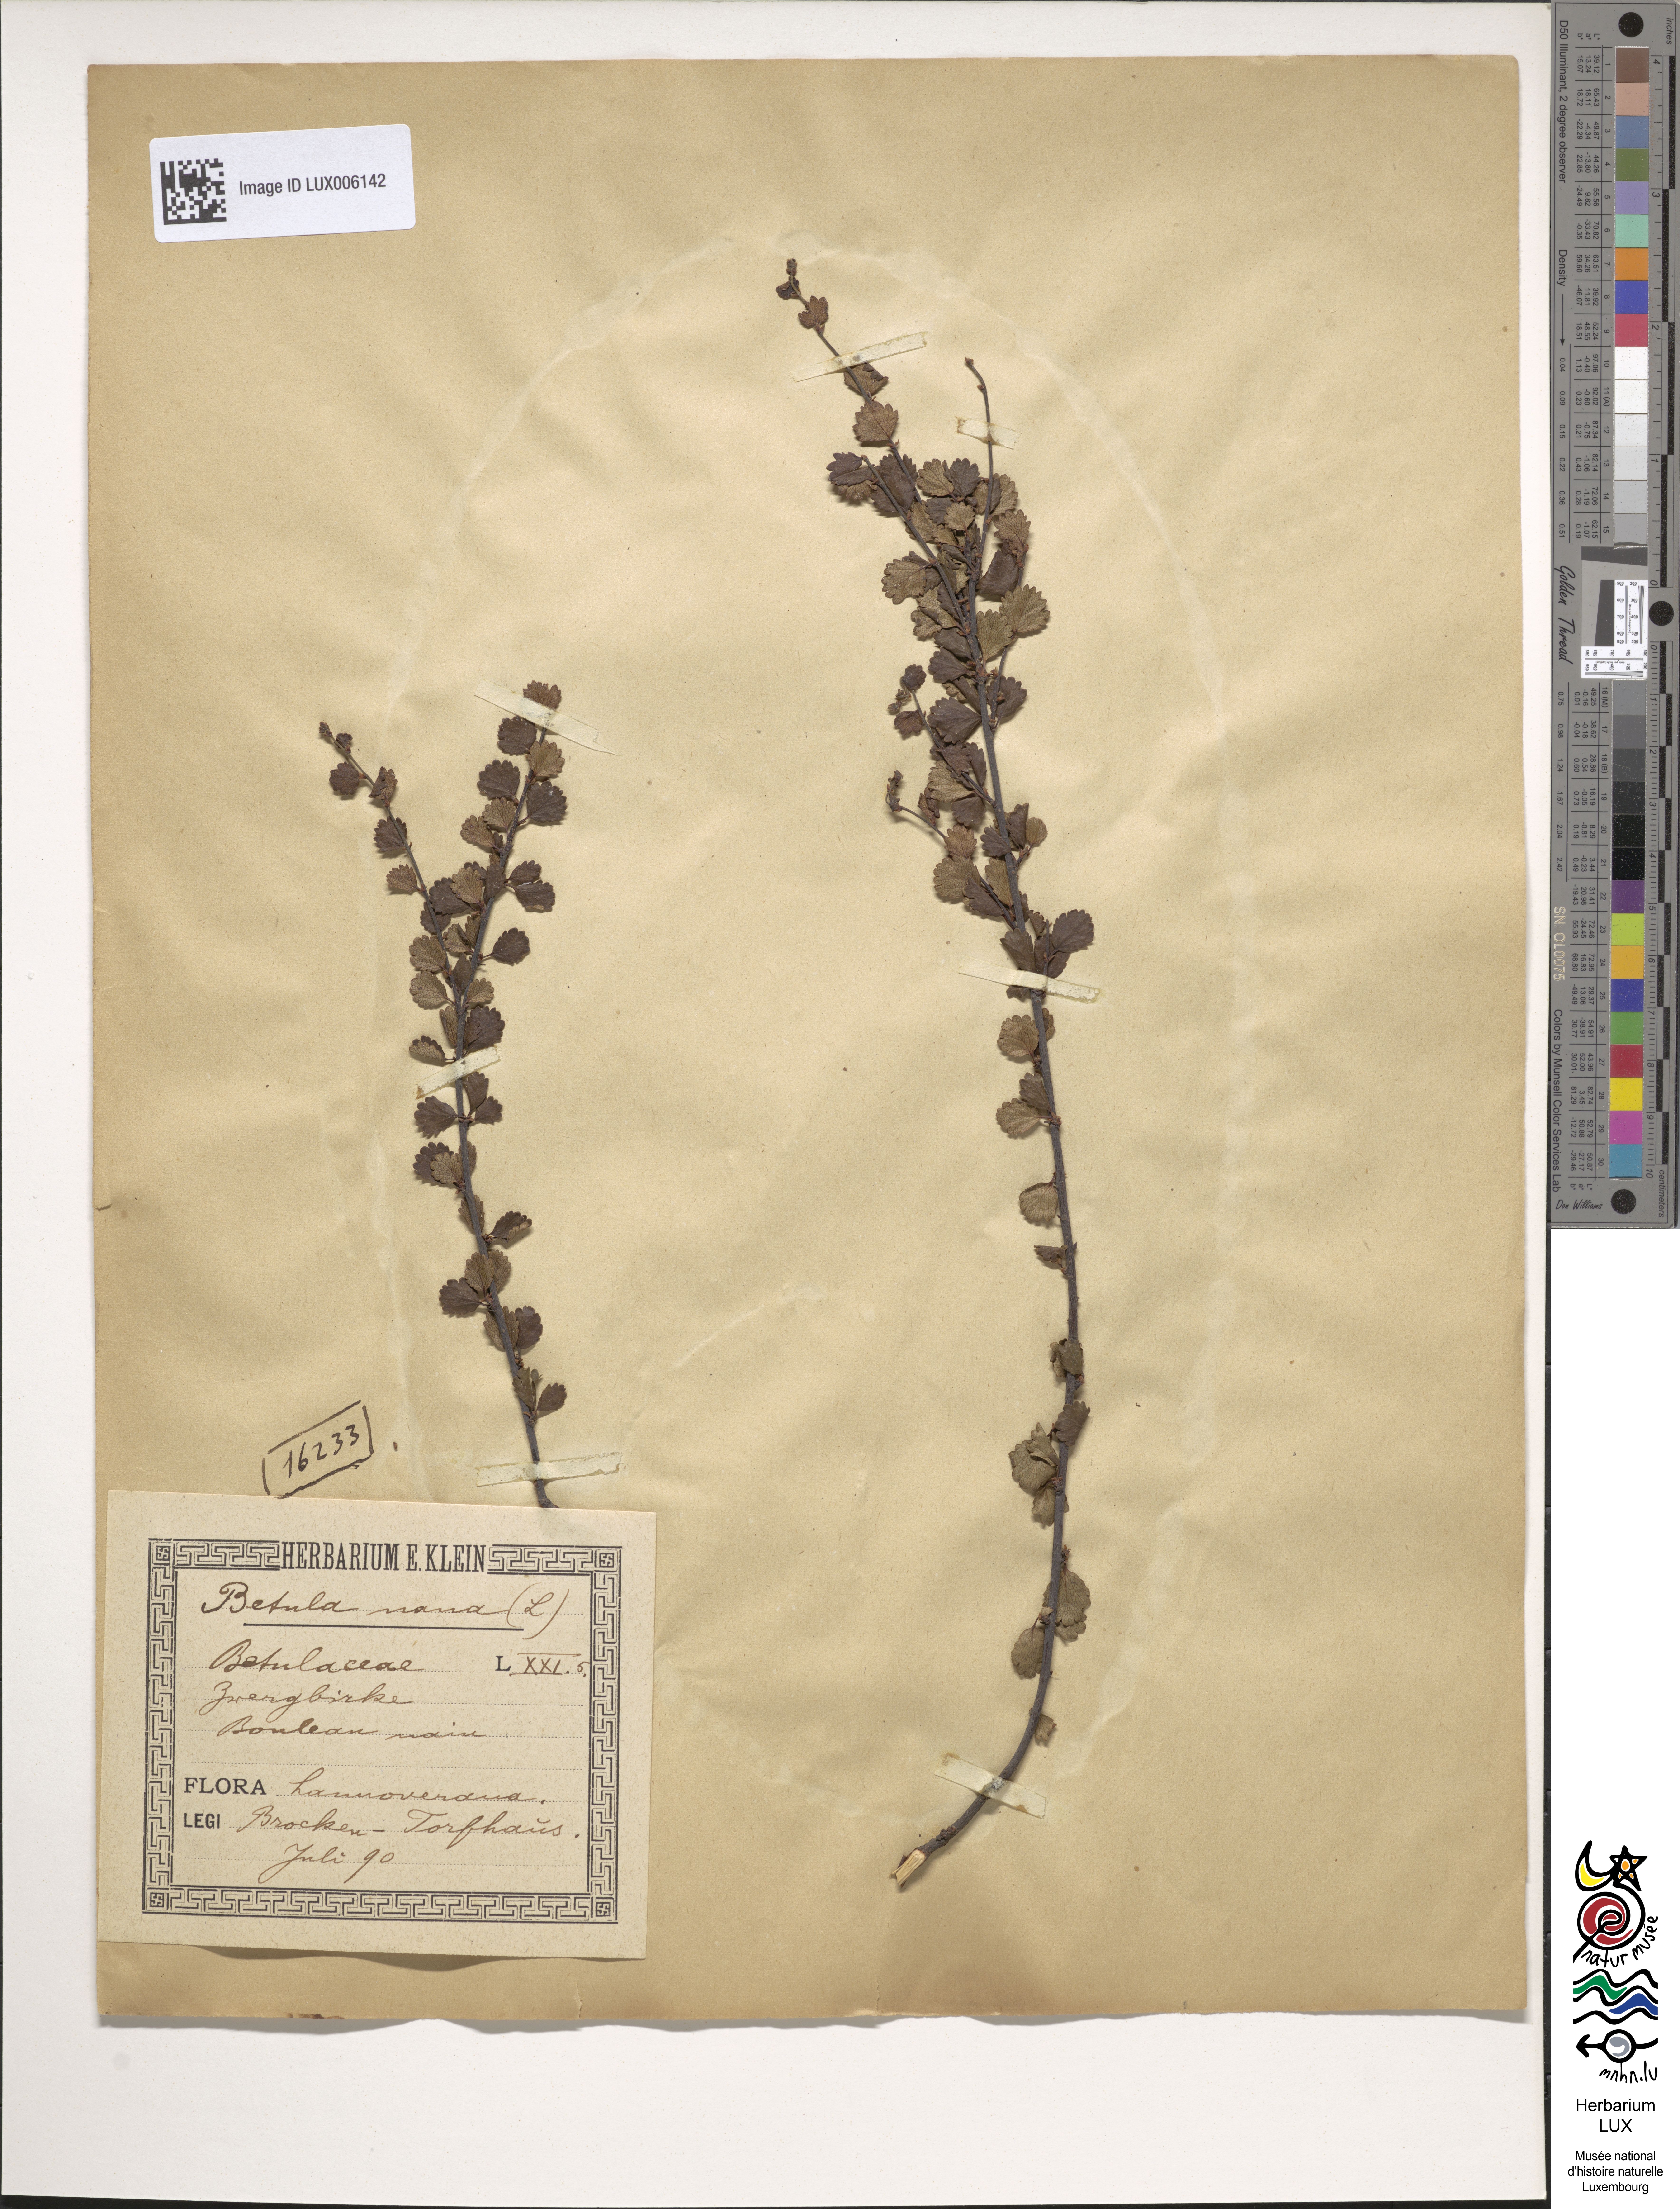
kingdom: Plantae
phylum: Tracheophyta
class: Magnoliopsida
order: Fagales
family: Betulaceae
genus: Betula
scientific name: Betula nana
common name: Arctic dwarf birch
